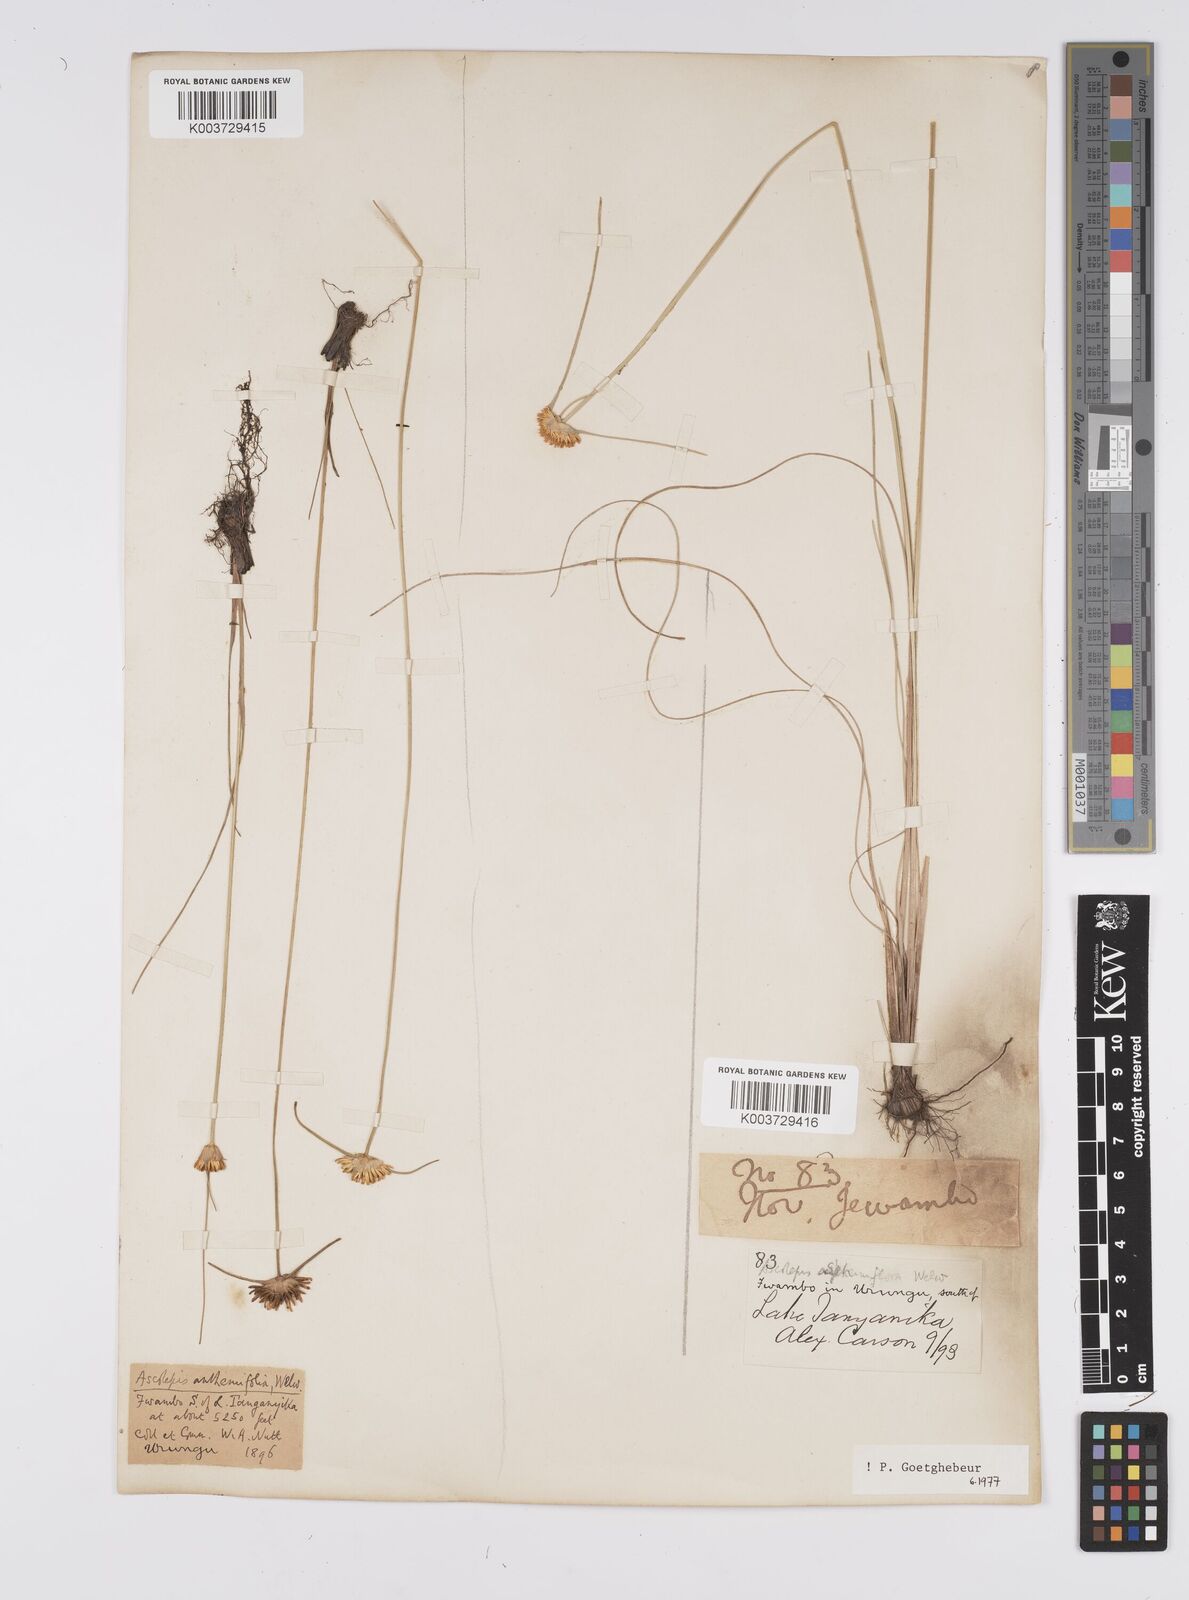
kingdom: Plantae
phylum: Tracheophyta
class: Liliopsida
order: Poales
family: Cyperaceae
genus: Cyperus
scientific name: Cyperus
